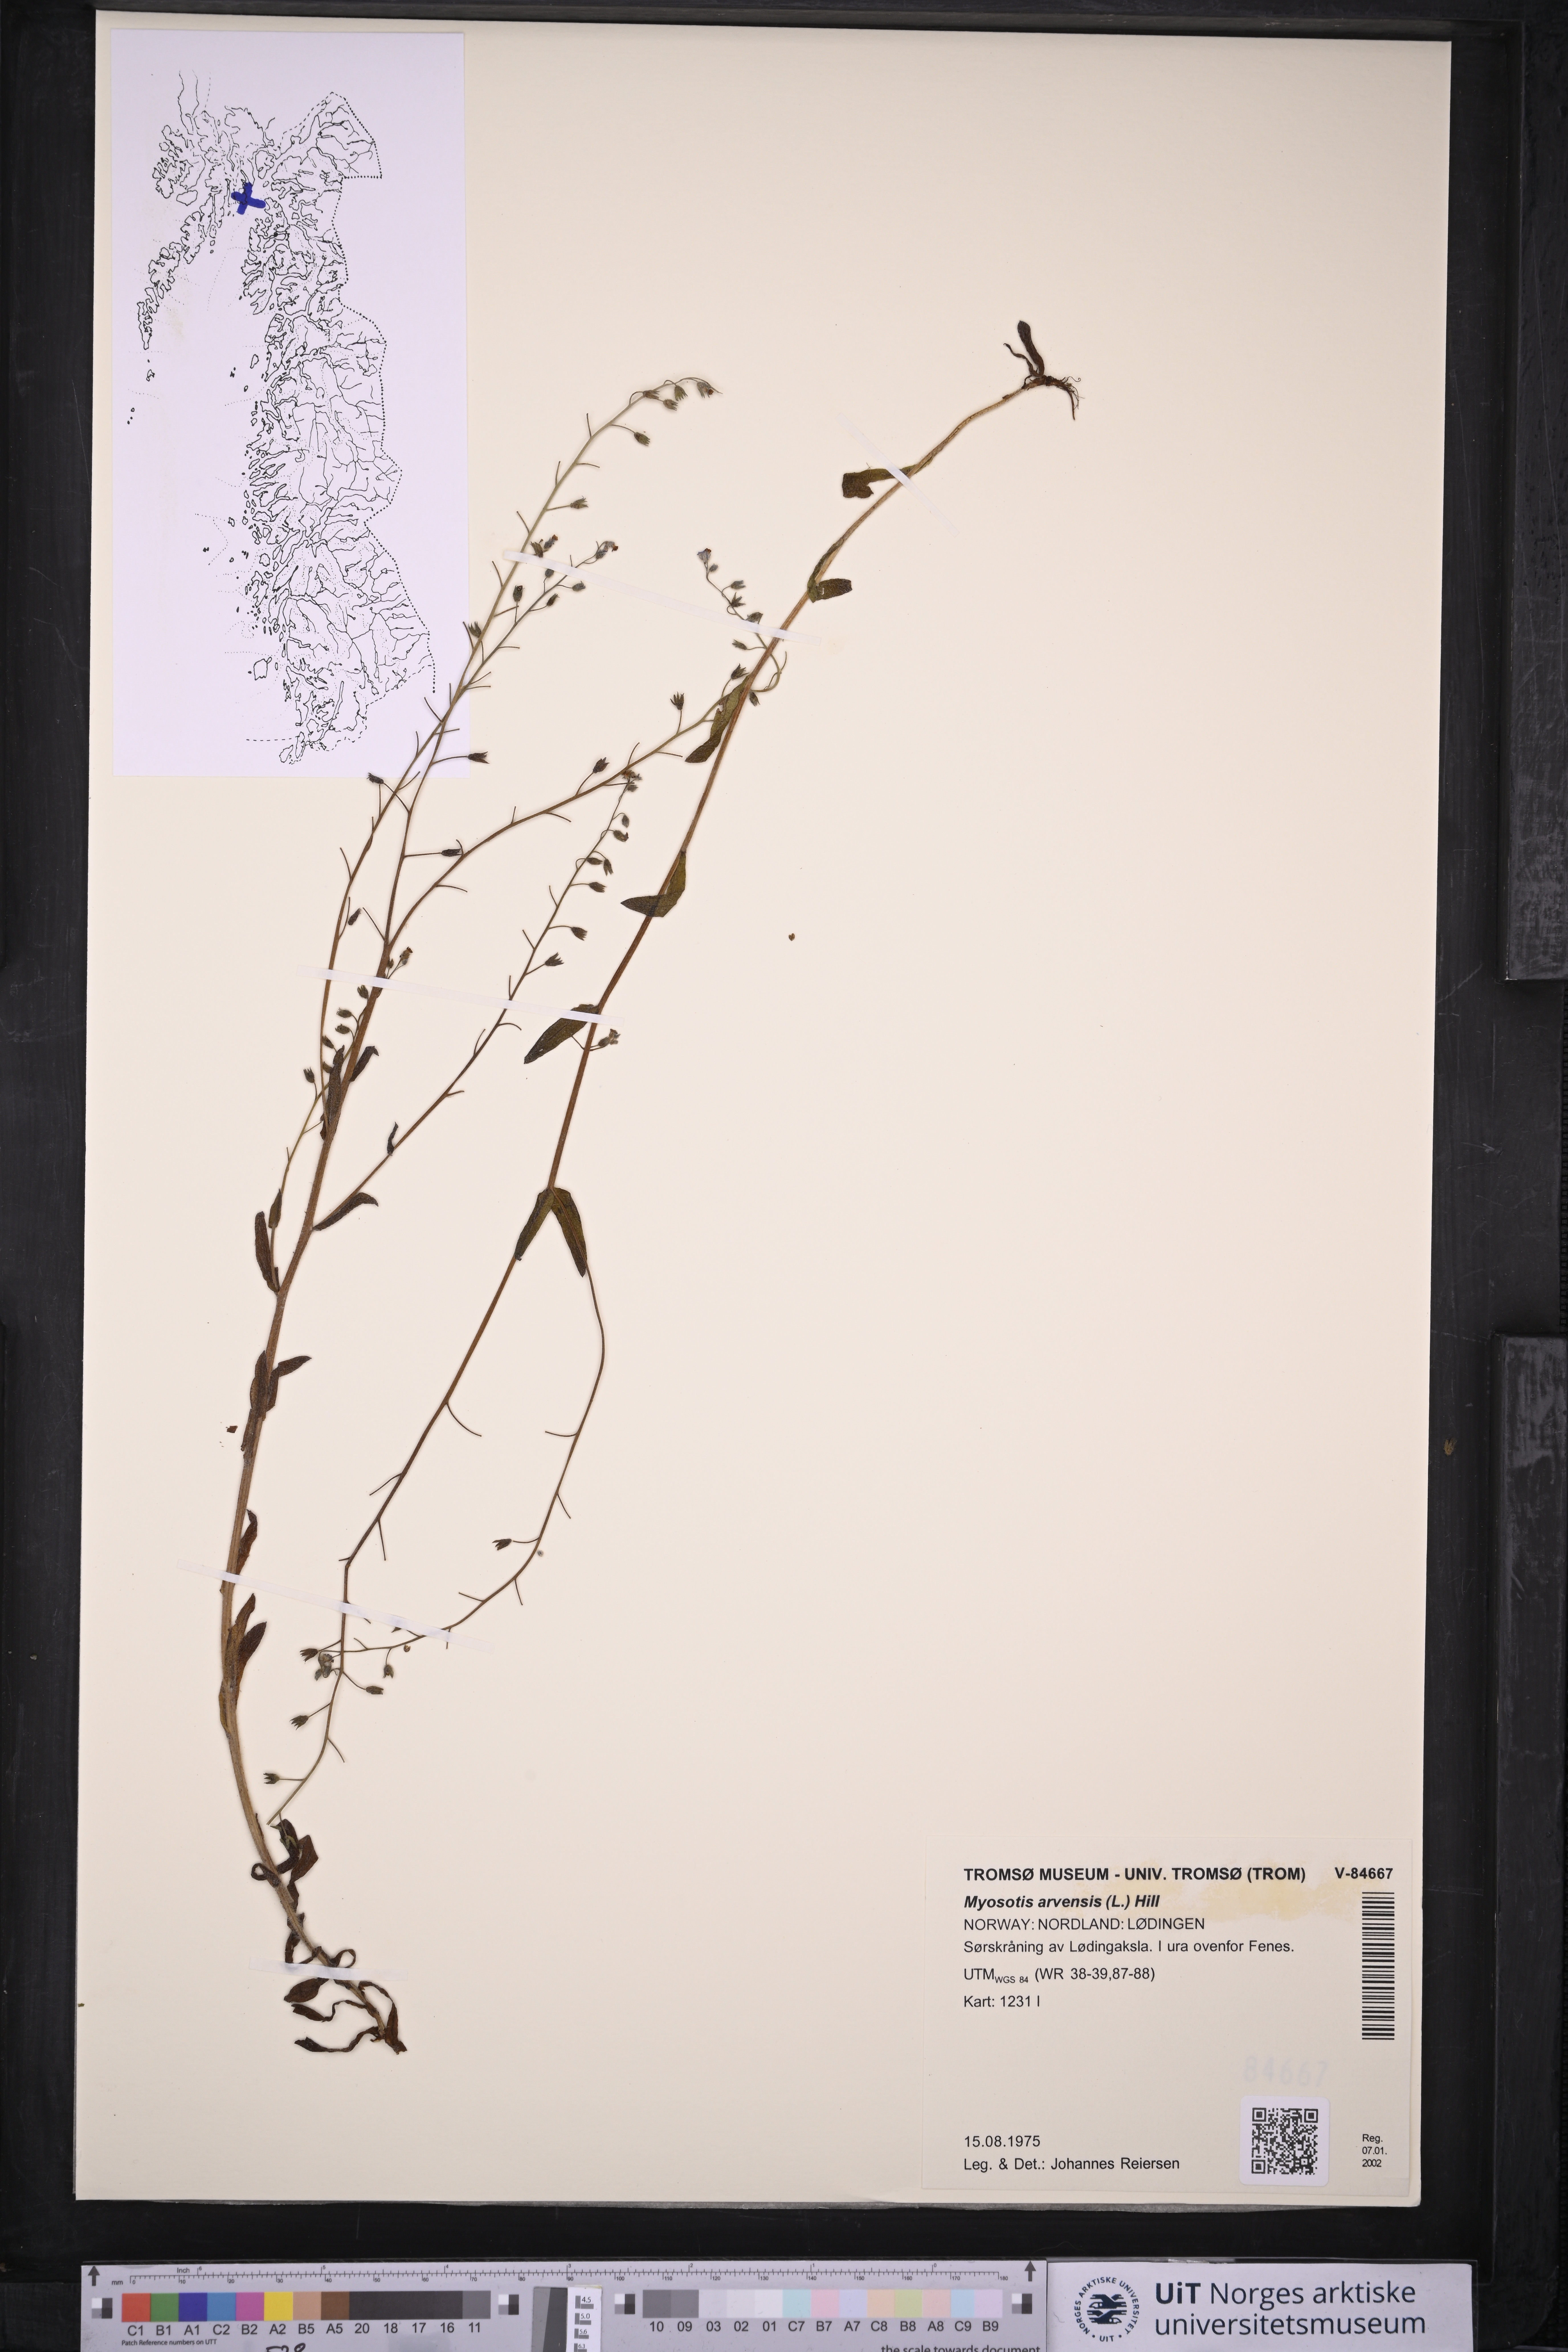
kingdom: Plantae
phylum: Tracheophyta
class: Magnoliopsida
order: Boraginales
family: Boraginaceae
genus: Myosotis
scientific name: Myosotis arvensis
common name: Field forget-me-not
